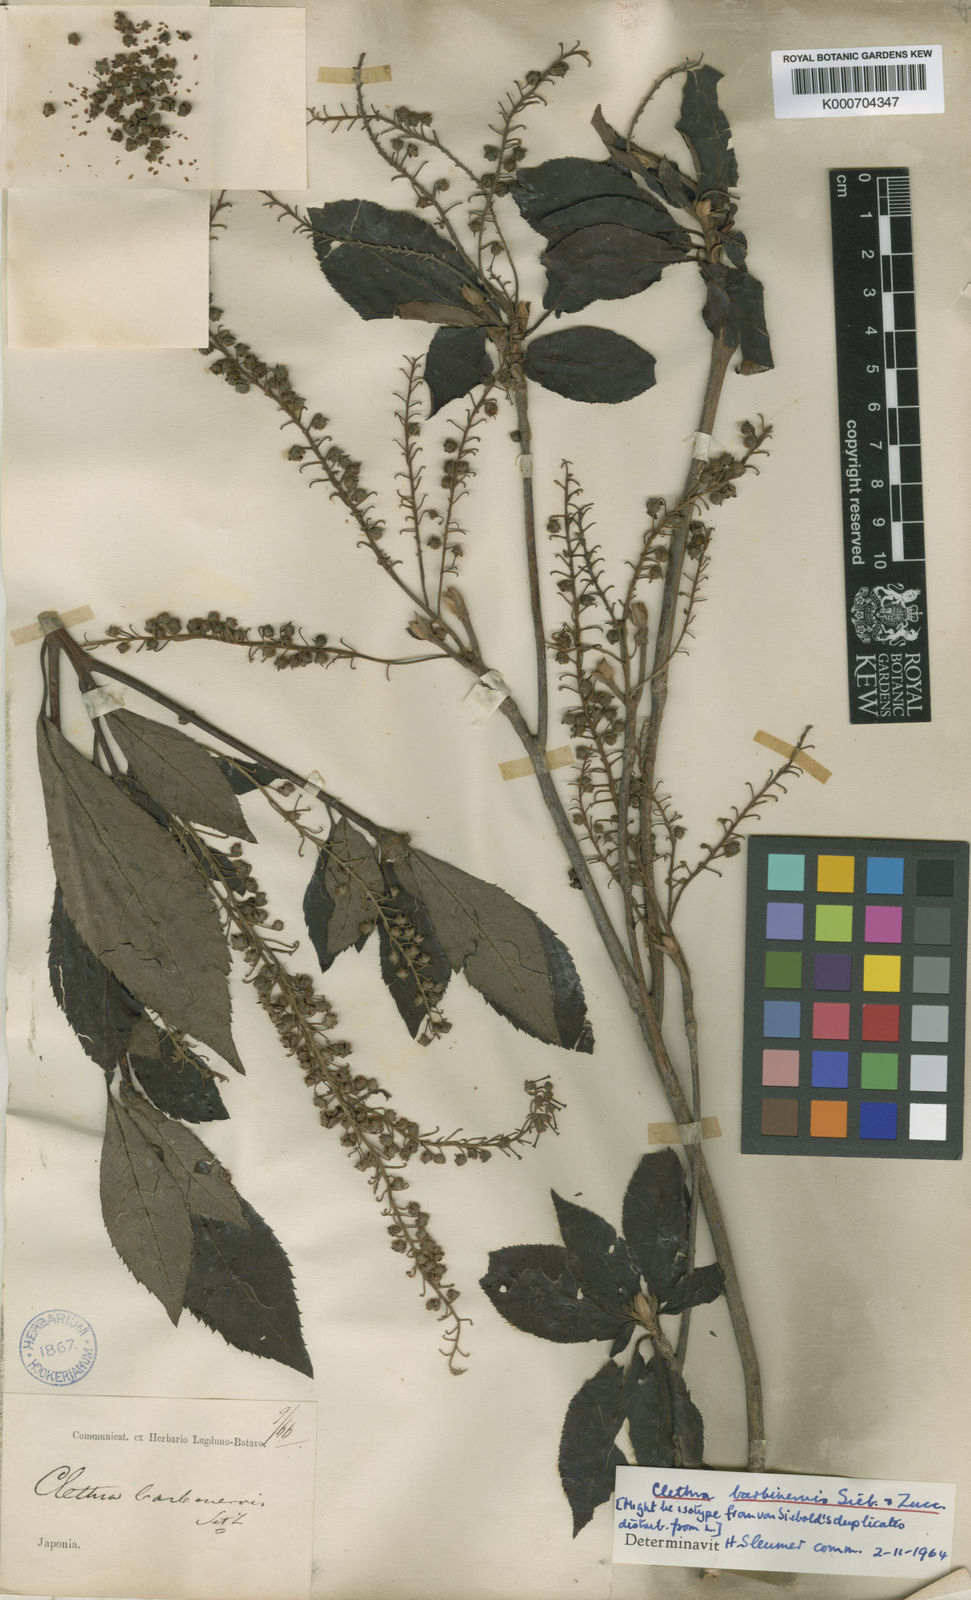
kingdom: Plantae
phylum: Tracheophyta
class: Magnoliopsida
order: Ericales
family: Clethraceae
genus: Clethra
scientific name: Clethra barbinervis
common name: Japanese clethra
